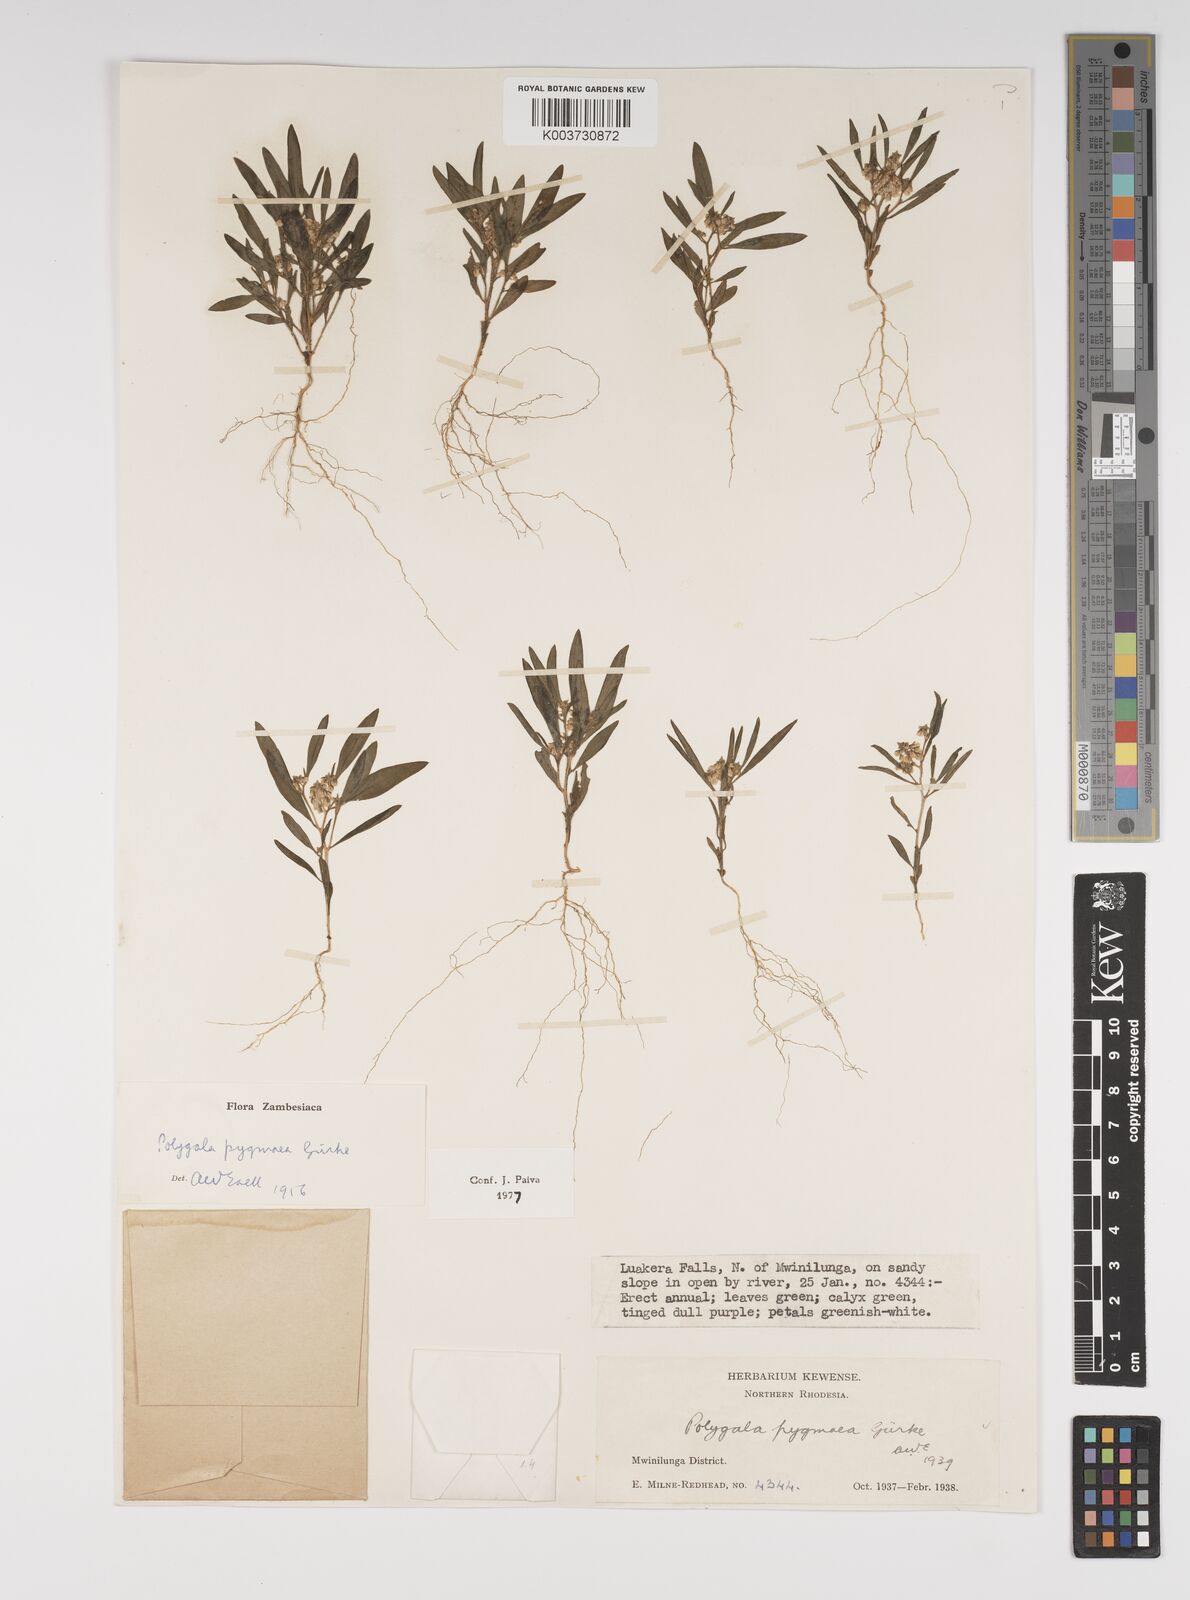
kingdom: Plantae
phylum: Tracheophyta
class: Magnoliopsida
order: Fabales
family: Polygalaceae
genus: Polygala
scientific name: Polygala welwitschii
